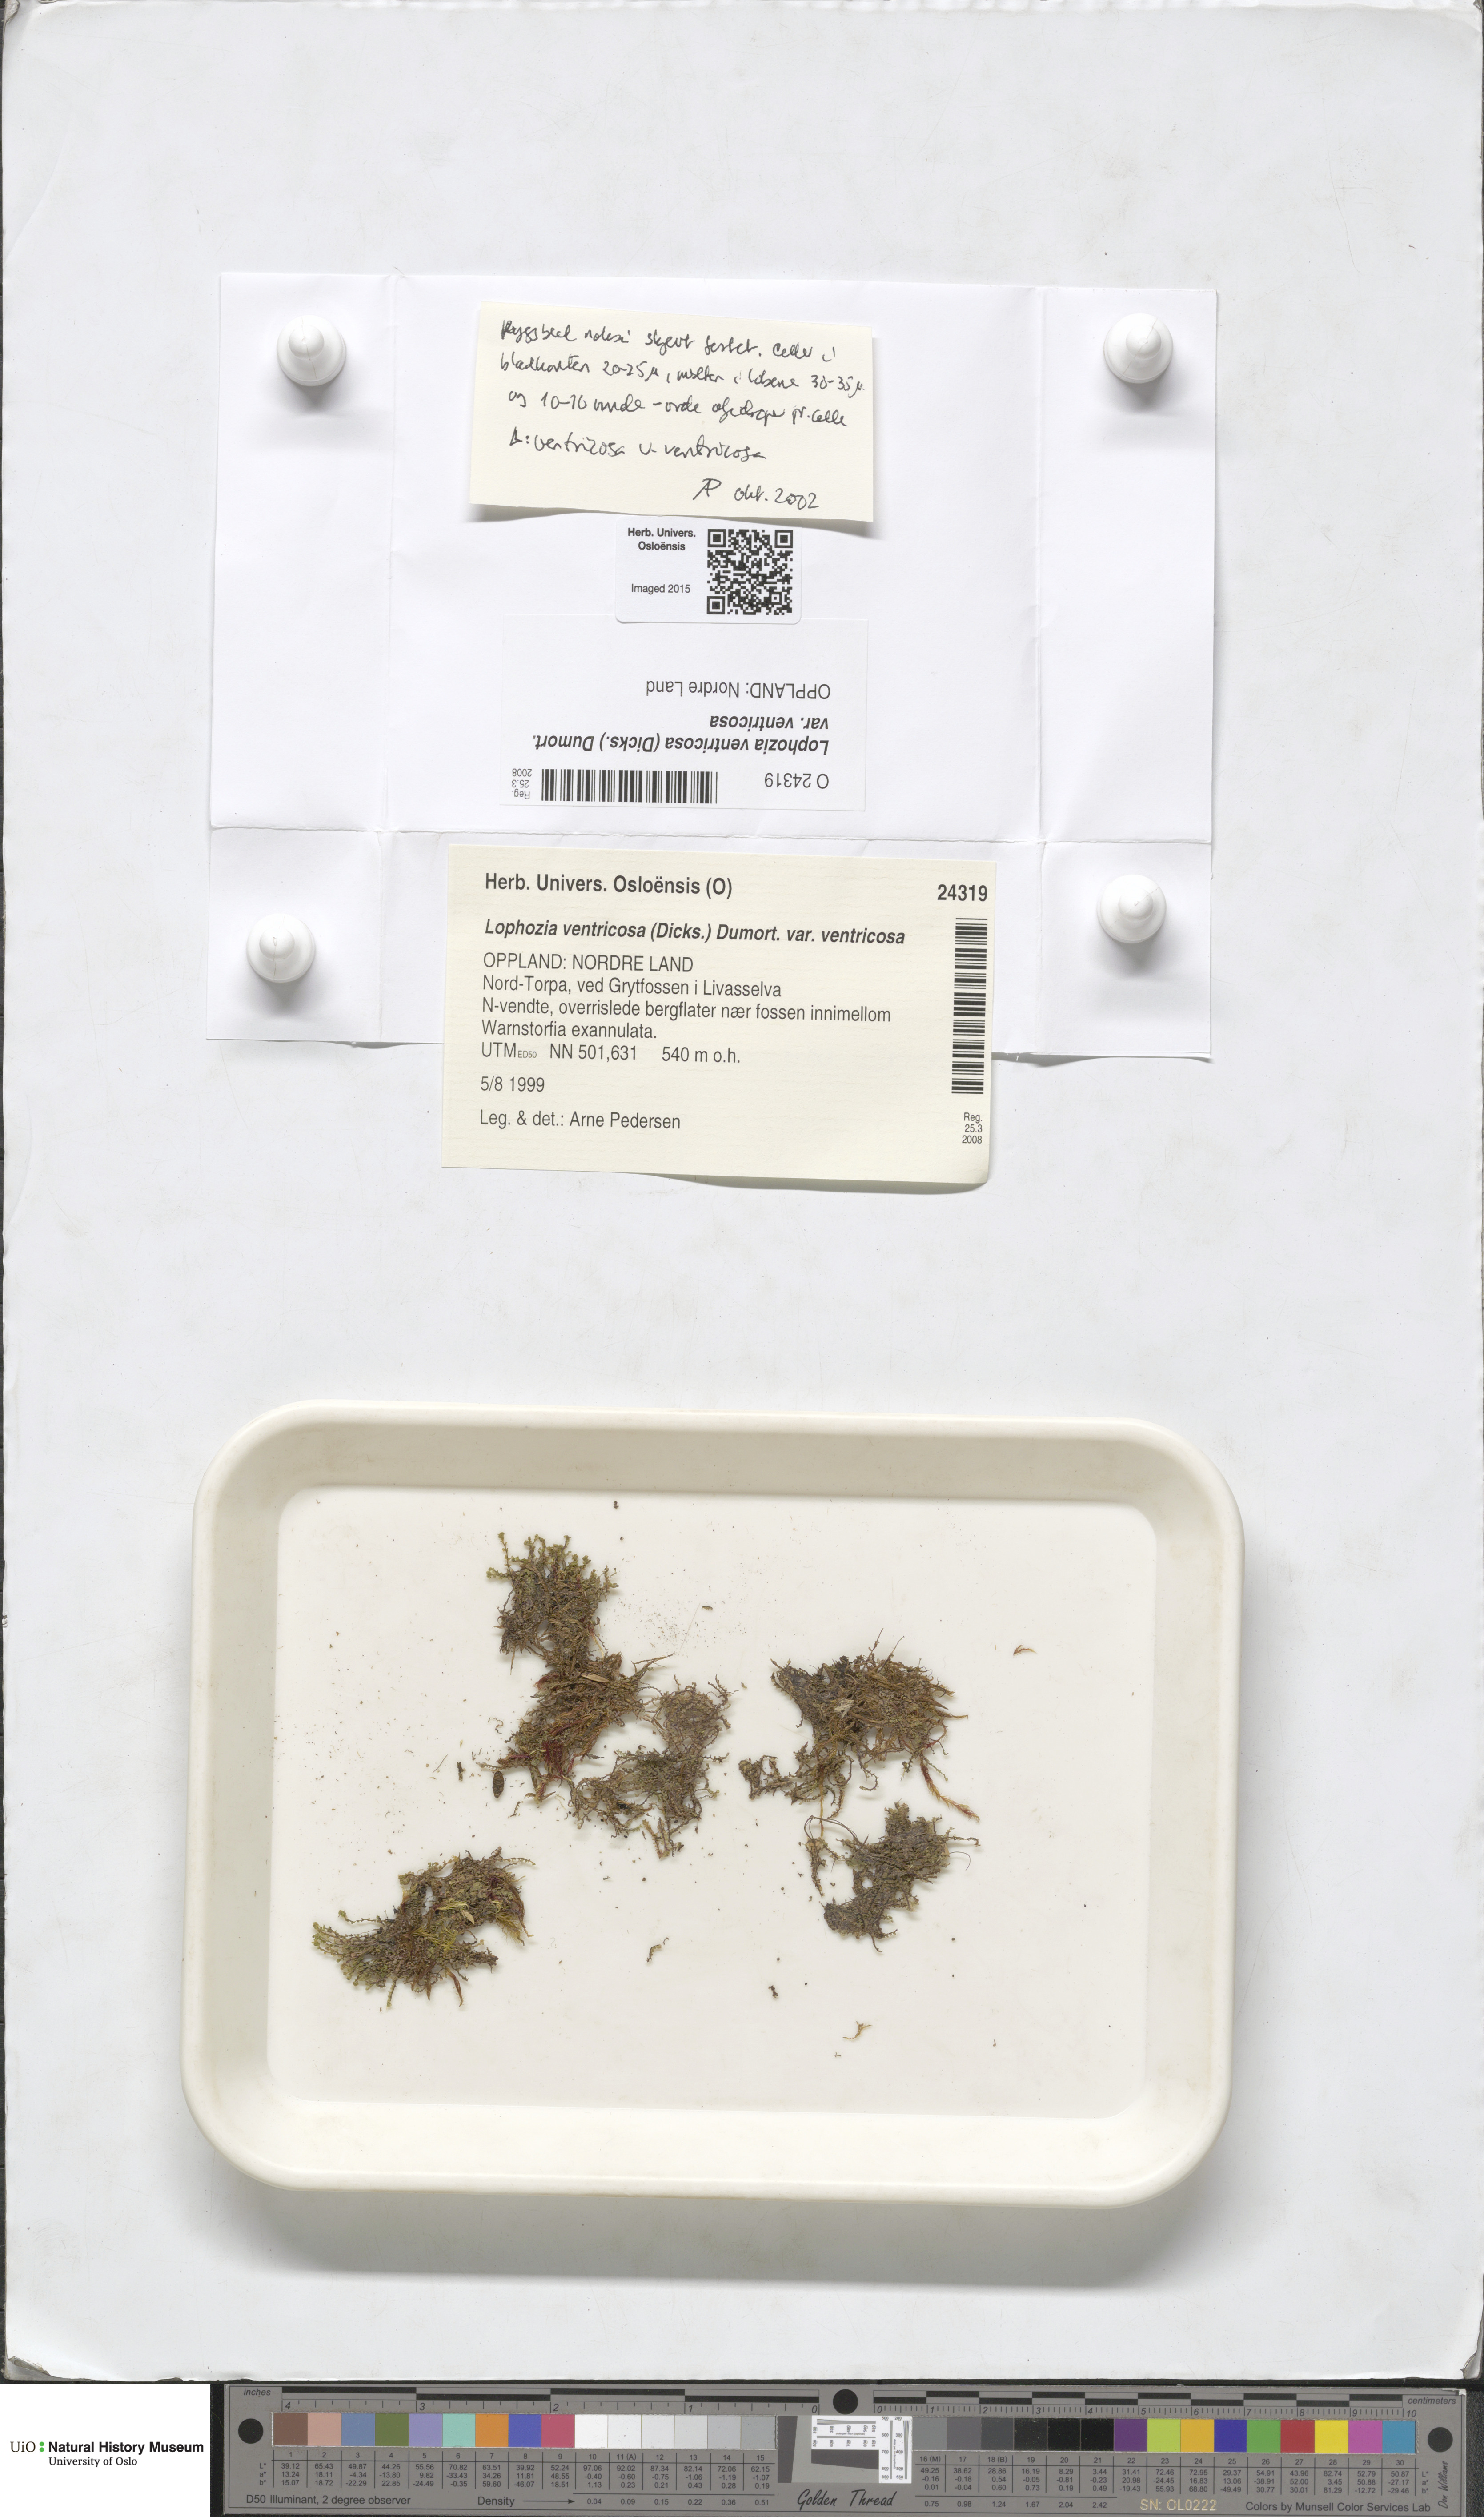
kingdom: Plantae
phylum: Marchantiophyta
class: Jungermanniopsida
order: Jungermanniales
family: Lophoziaceae
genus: Lophozia
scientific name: Lophozia ventricosa
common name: Tumid notchwort
